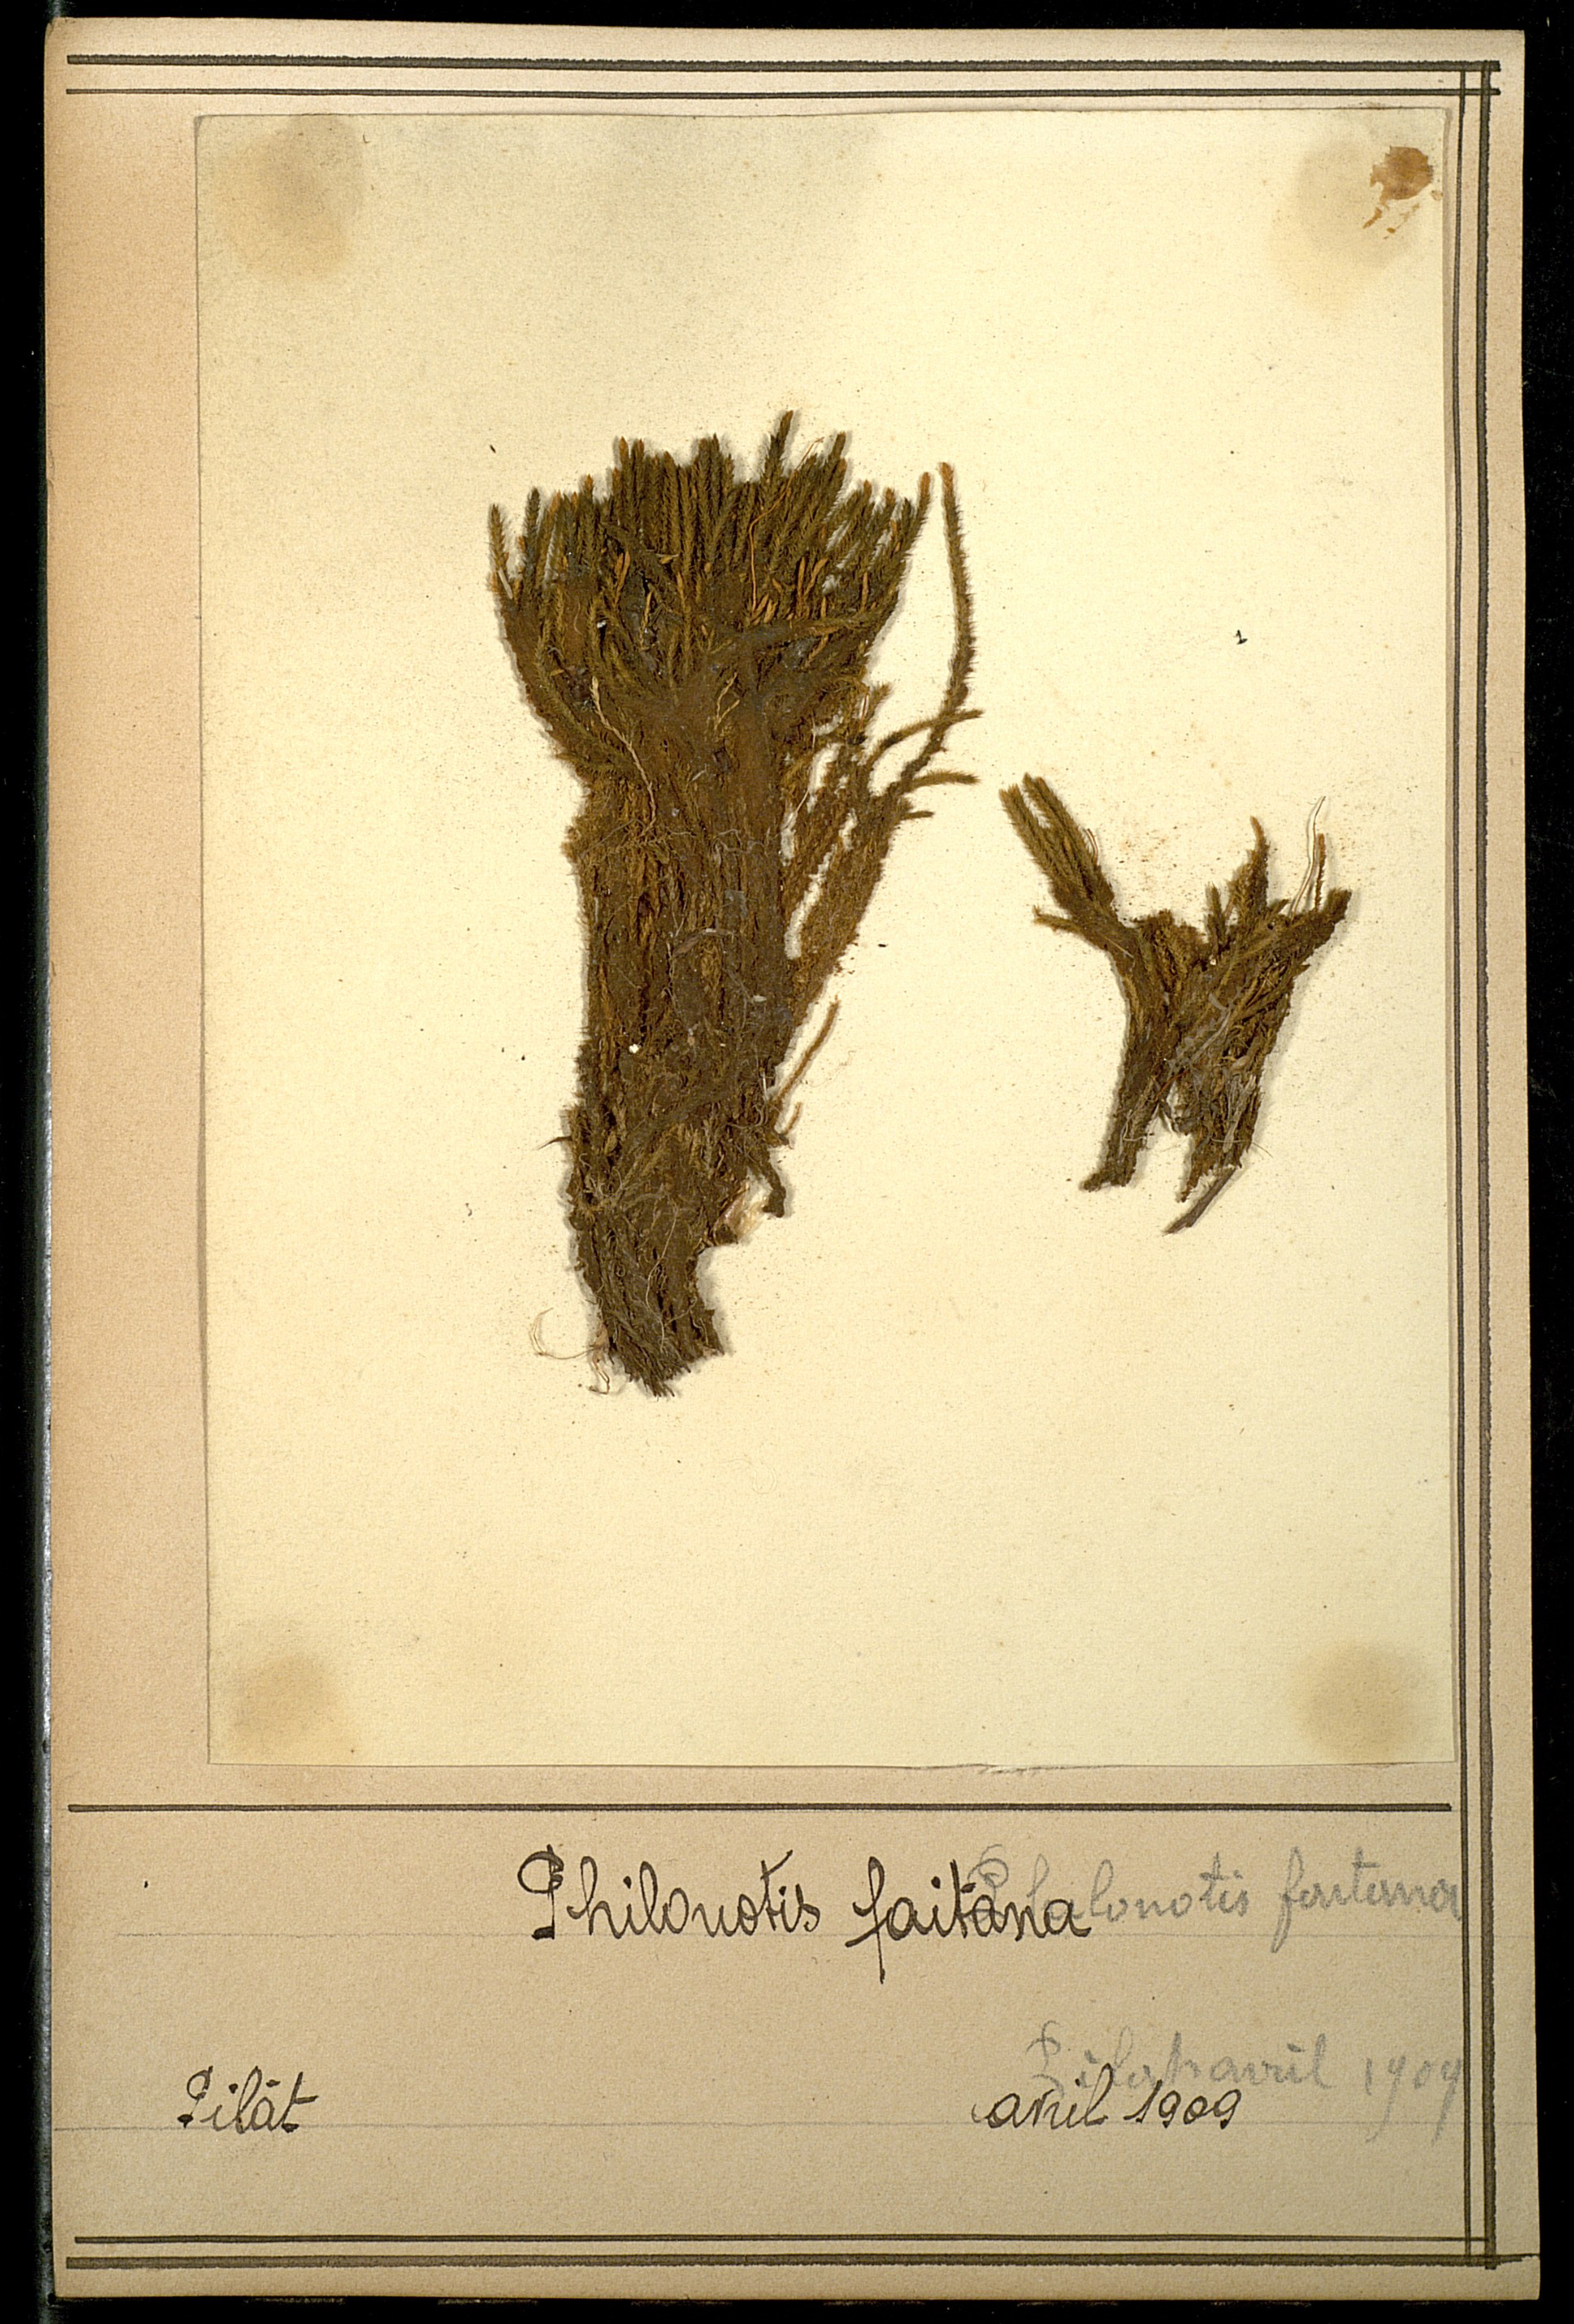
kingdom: Plantae
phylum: Bryophyta
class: Bryopsida
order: Bartramiales
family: Bartramiaceae
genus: Philonotis
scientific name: Philonotis fontana
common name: Fountain apple-moss
